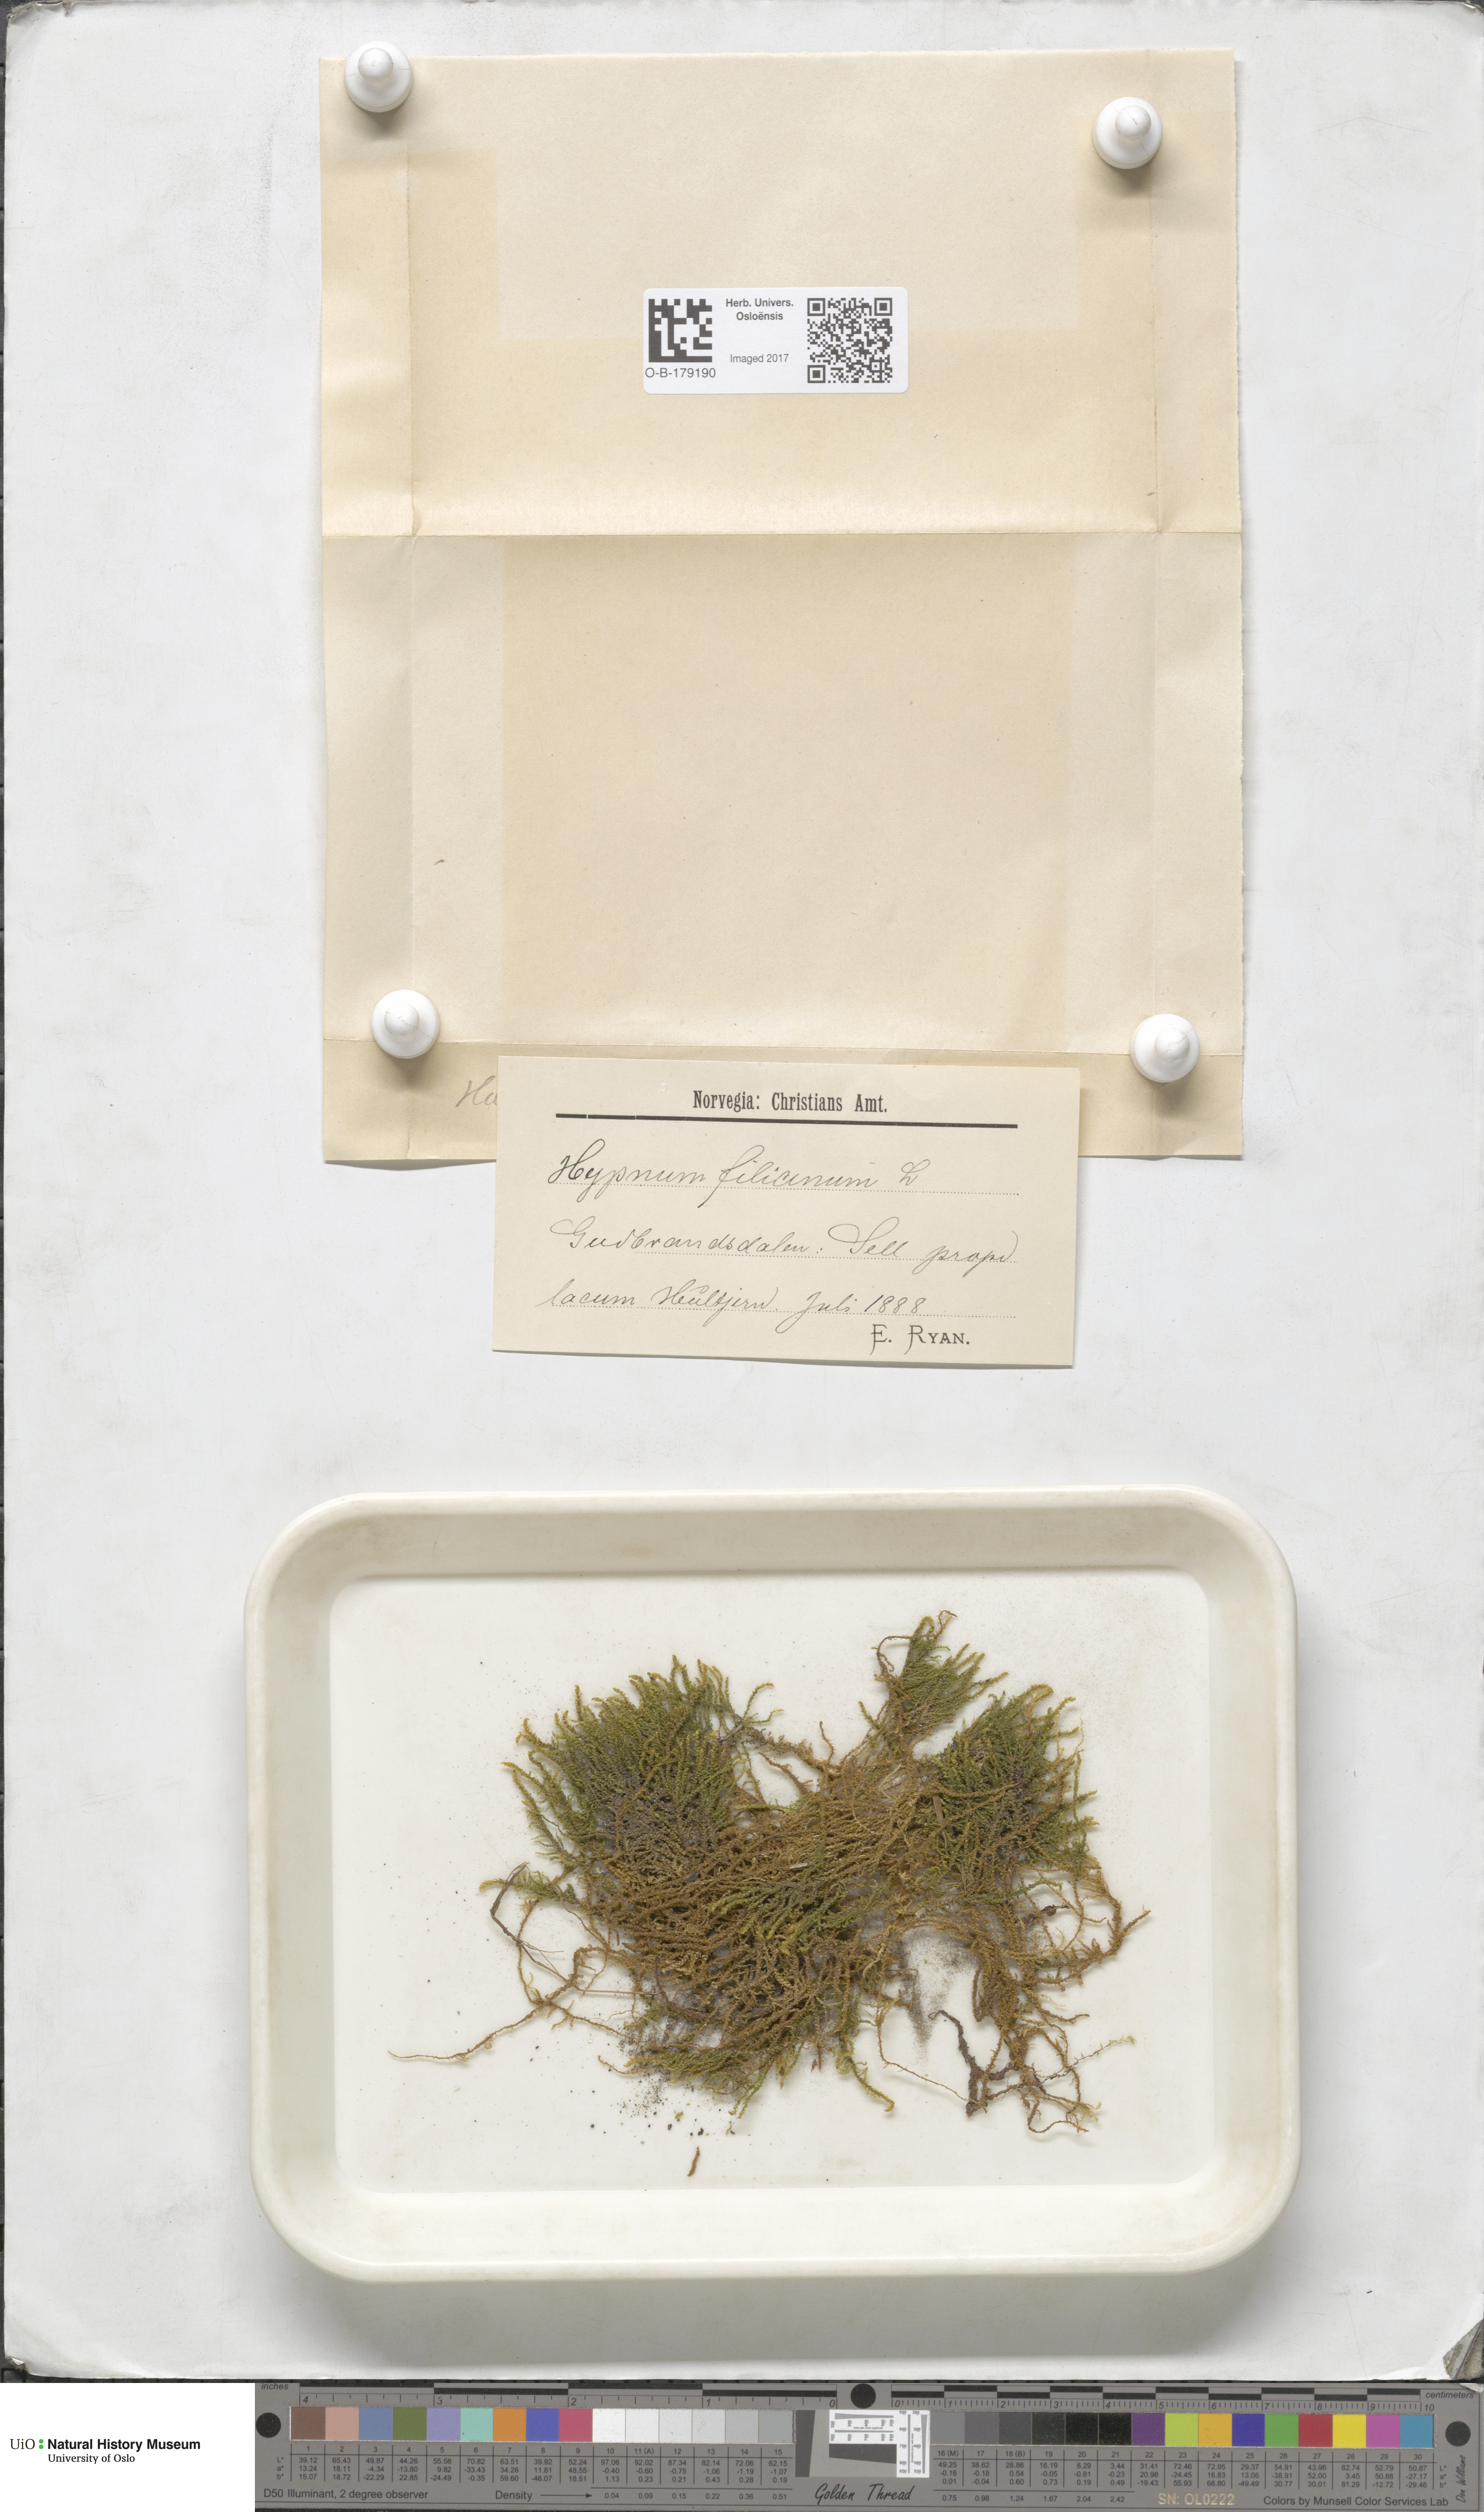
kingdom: Plantae
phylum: Bryophyta
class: Bryopsida
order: Hypnales
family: Amblystegiaceae
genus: Cratoneuron
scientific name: Cratoneuron filicinum
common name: Fern-leaved hook moss
